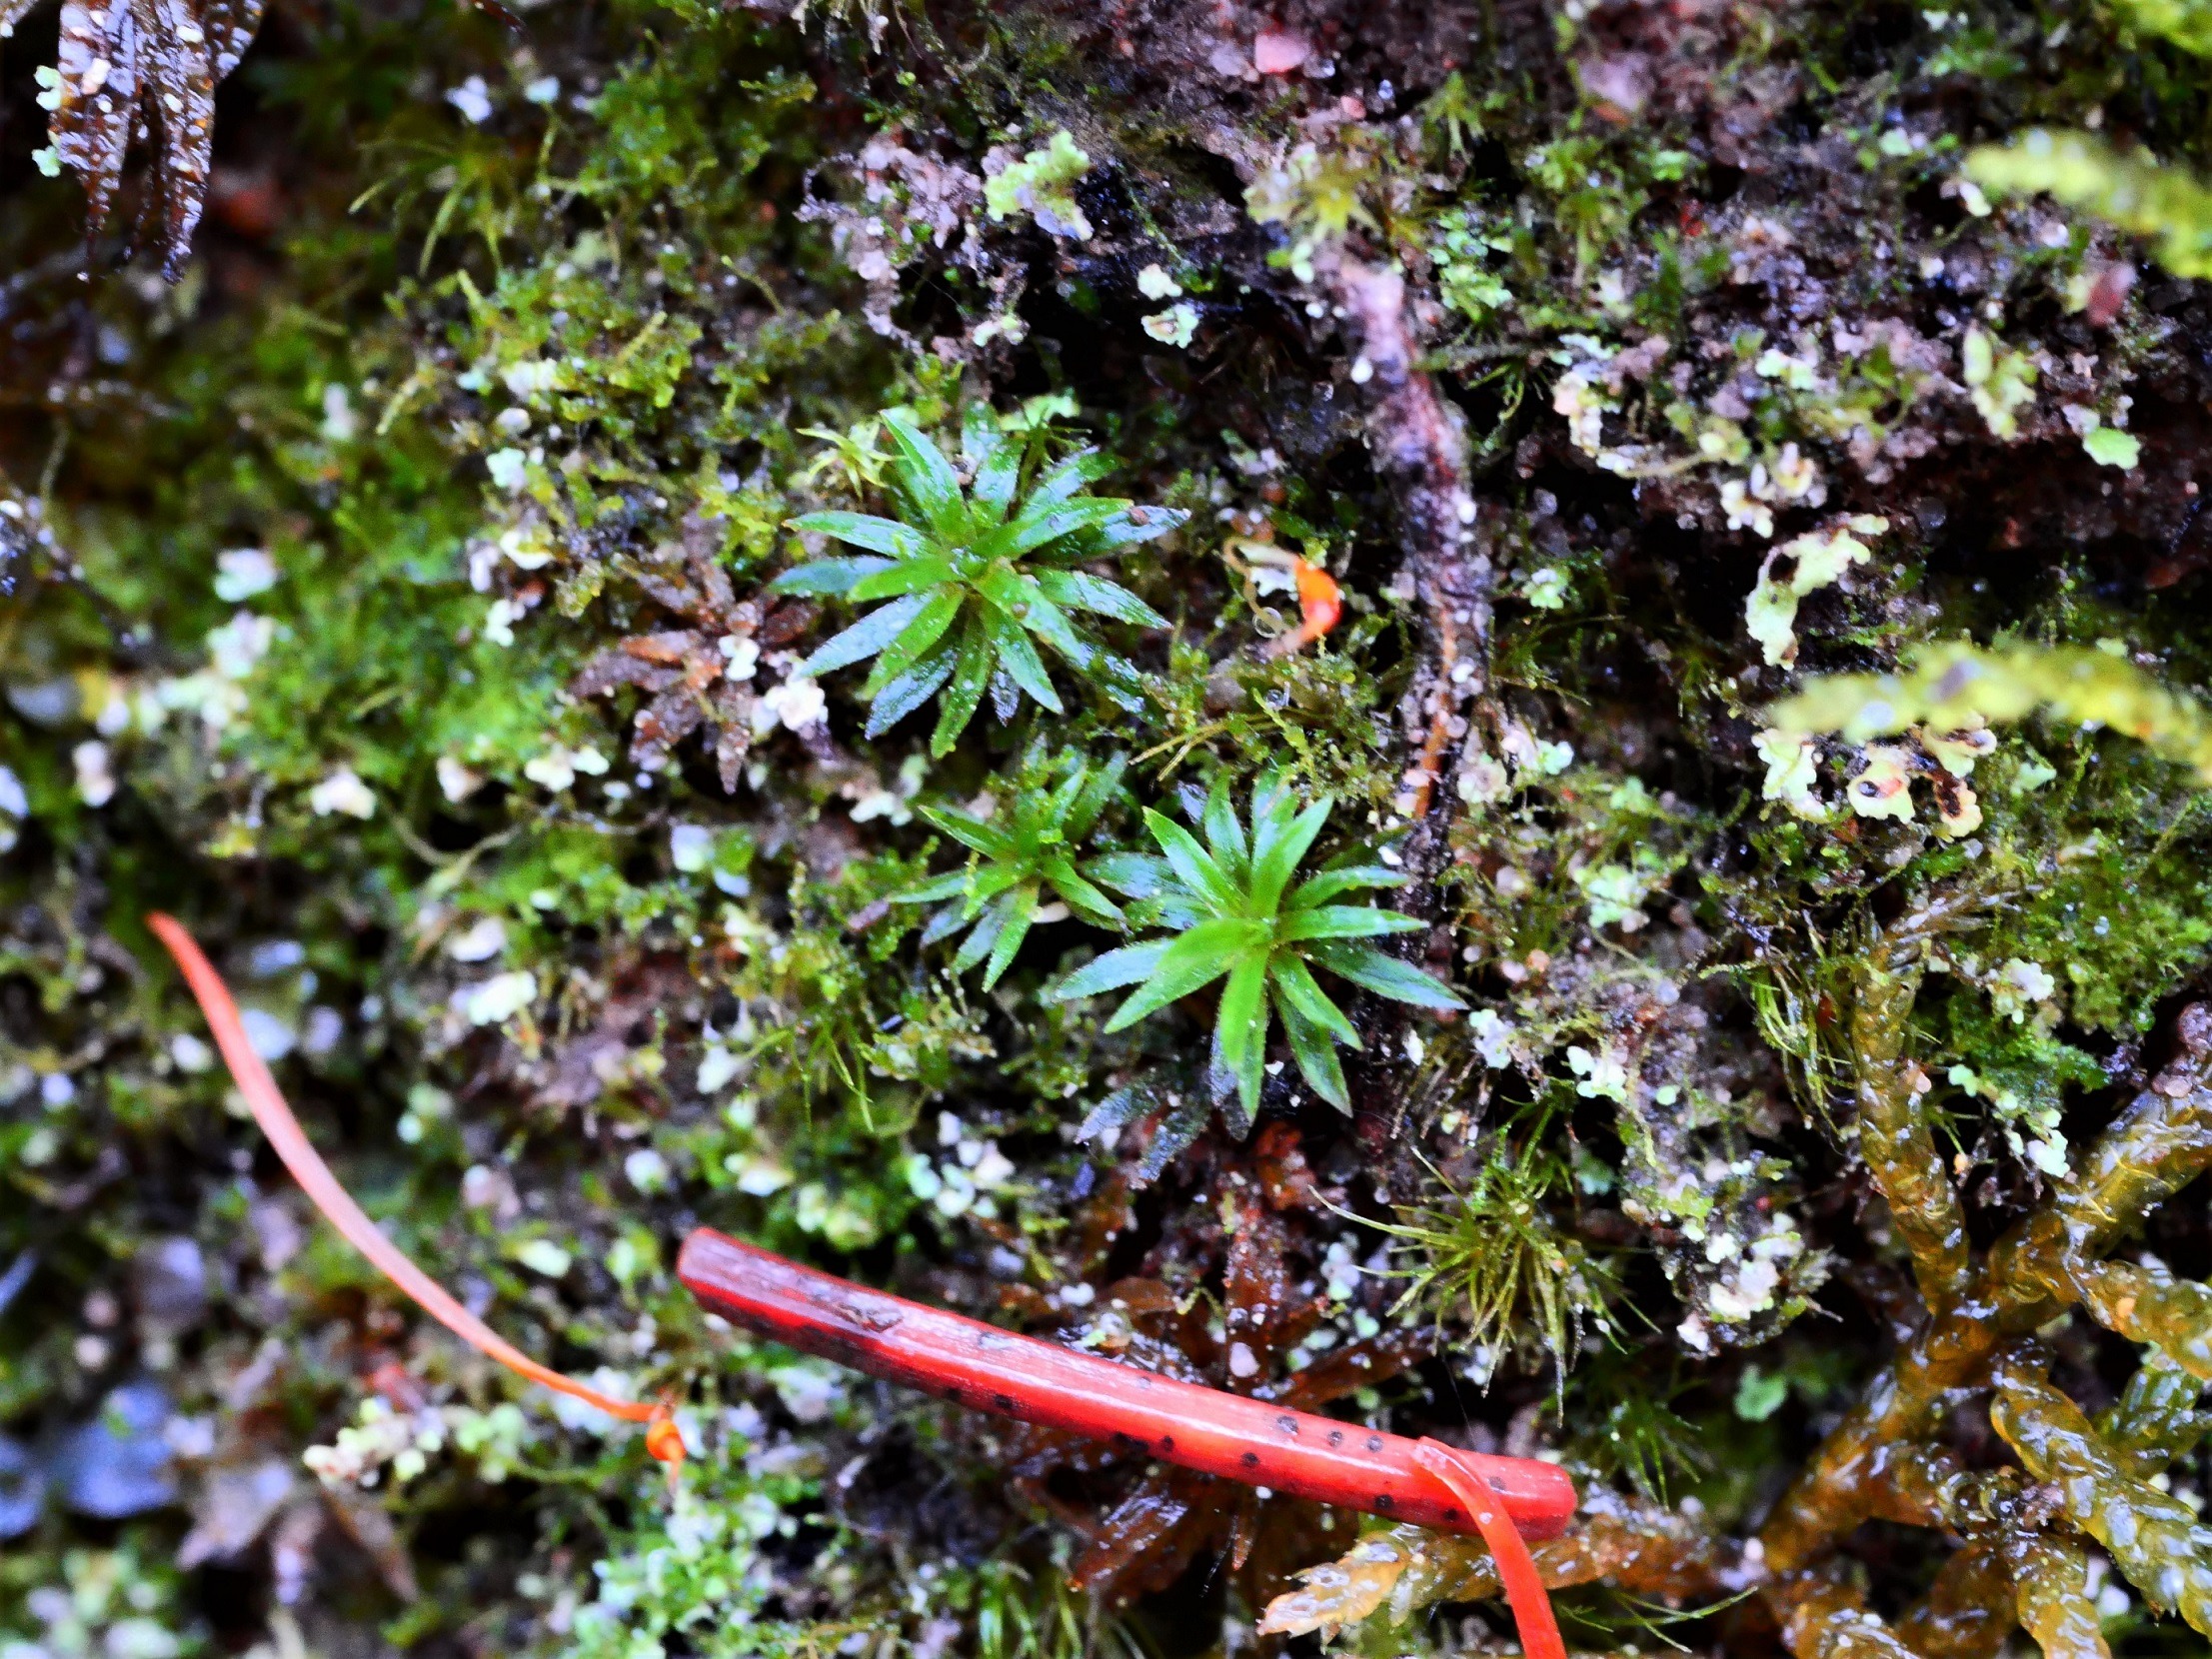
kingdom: Plantae
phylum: Bryophyta
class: Polytrichopsida
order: Polytrichales
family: Polytrichaceae
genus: Pogonatum
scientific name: Pogonatum aloides
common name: Smal urnekapsel
